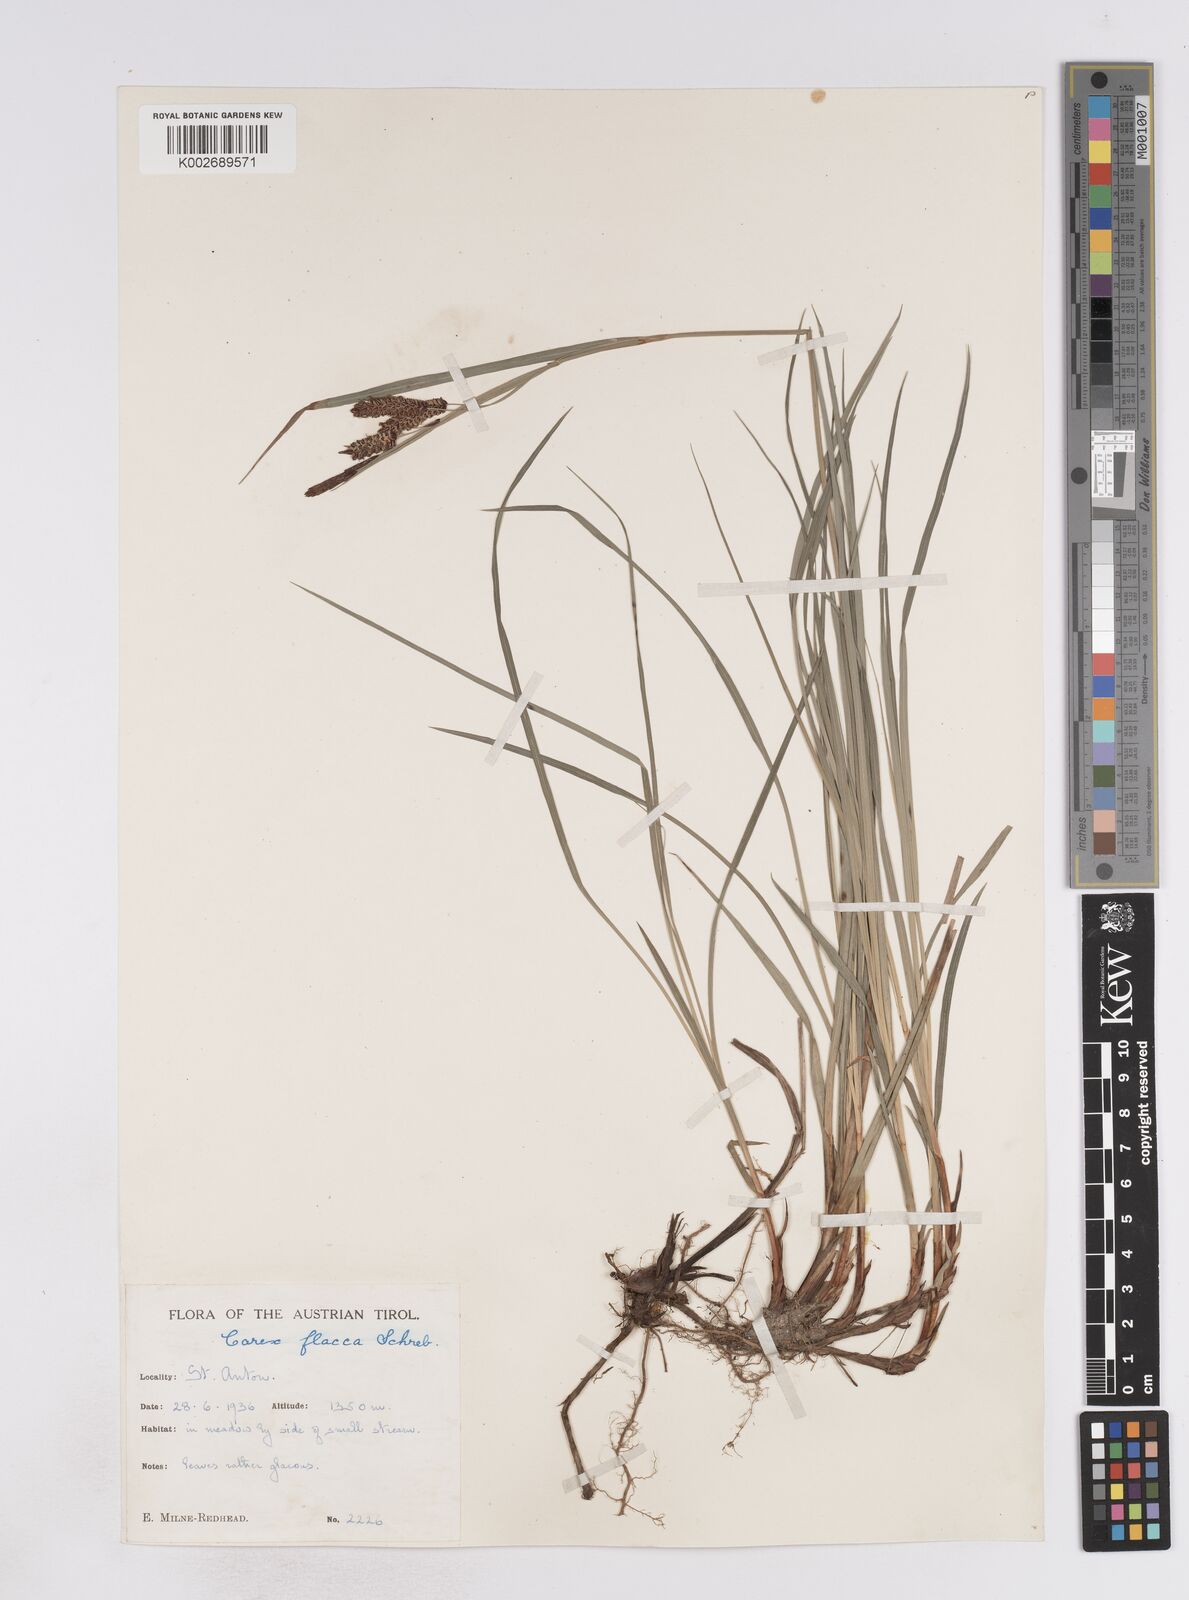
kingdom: Plantae
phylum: Tracheophyta
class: Liliopsida
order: Poales
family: Cyperaceae
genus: Carex
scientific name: Carex flacca
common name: Glaucous sedge
